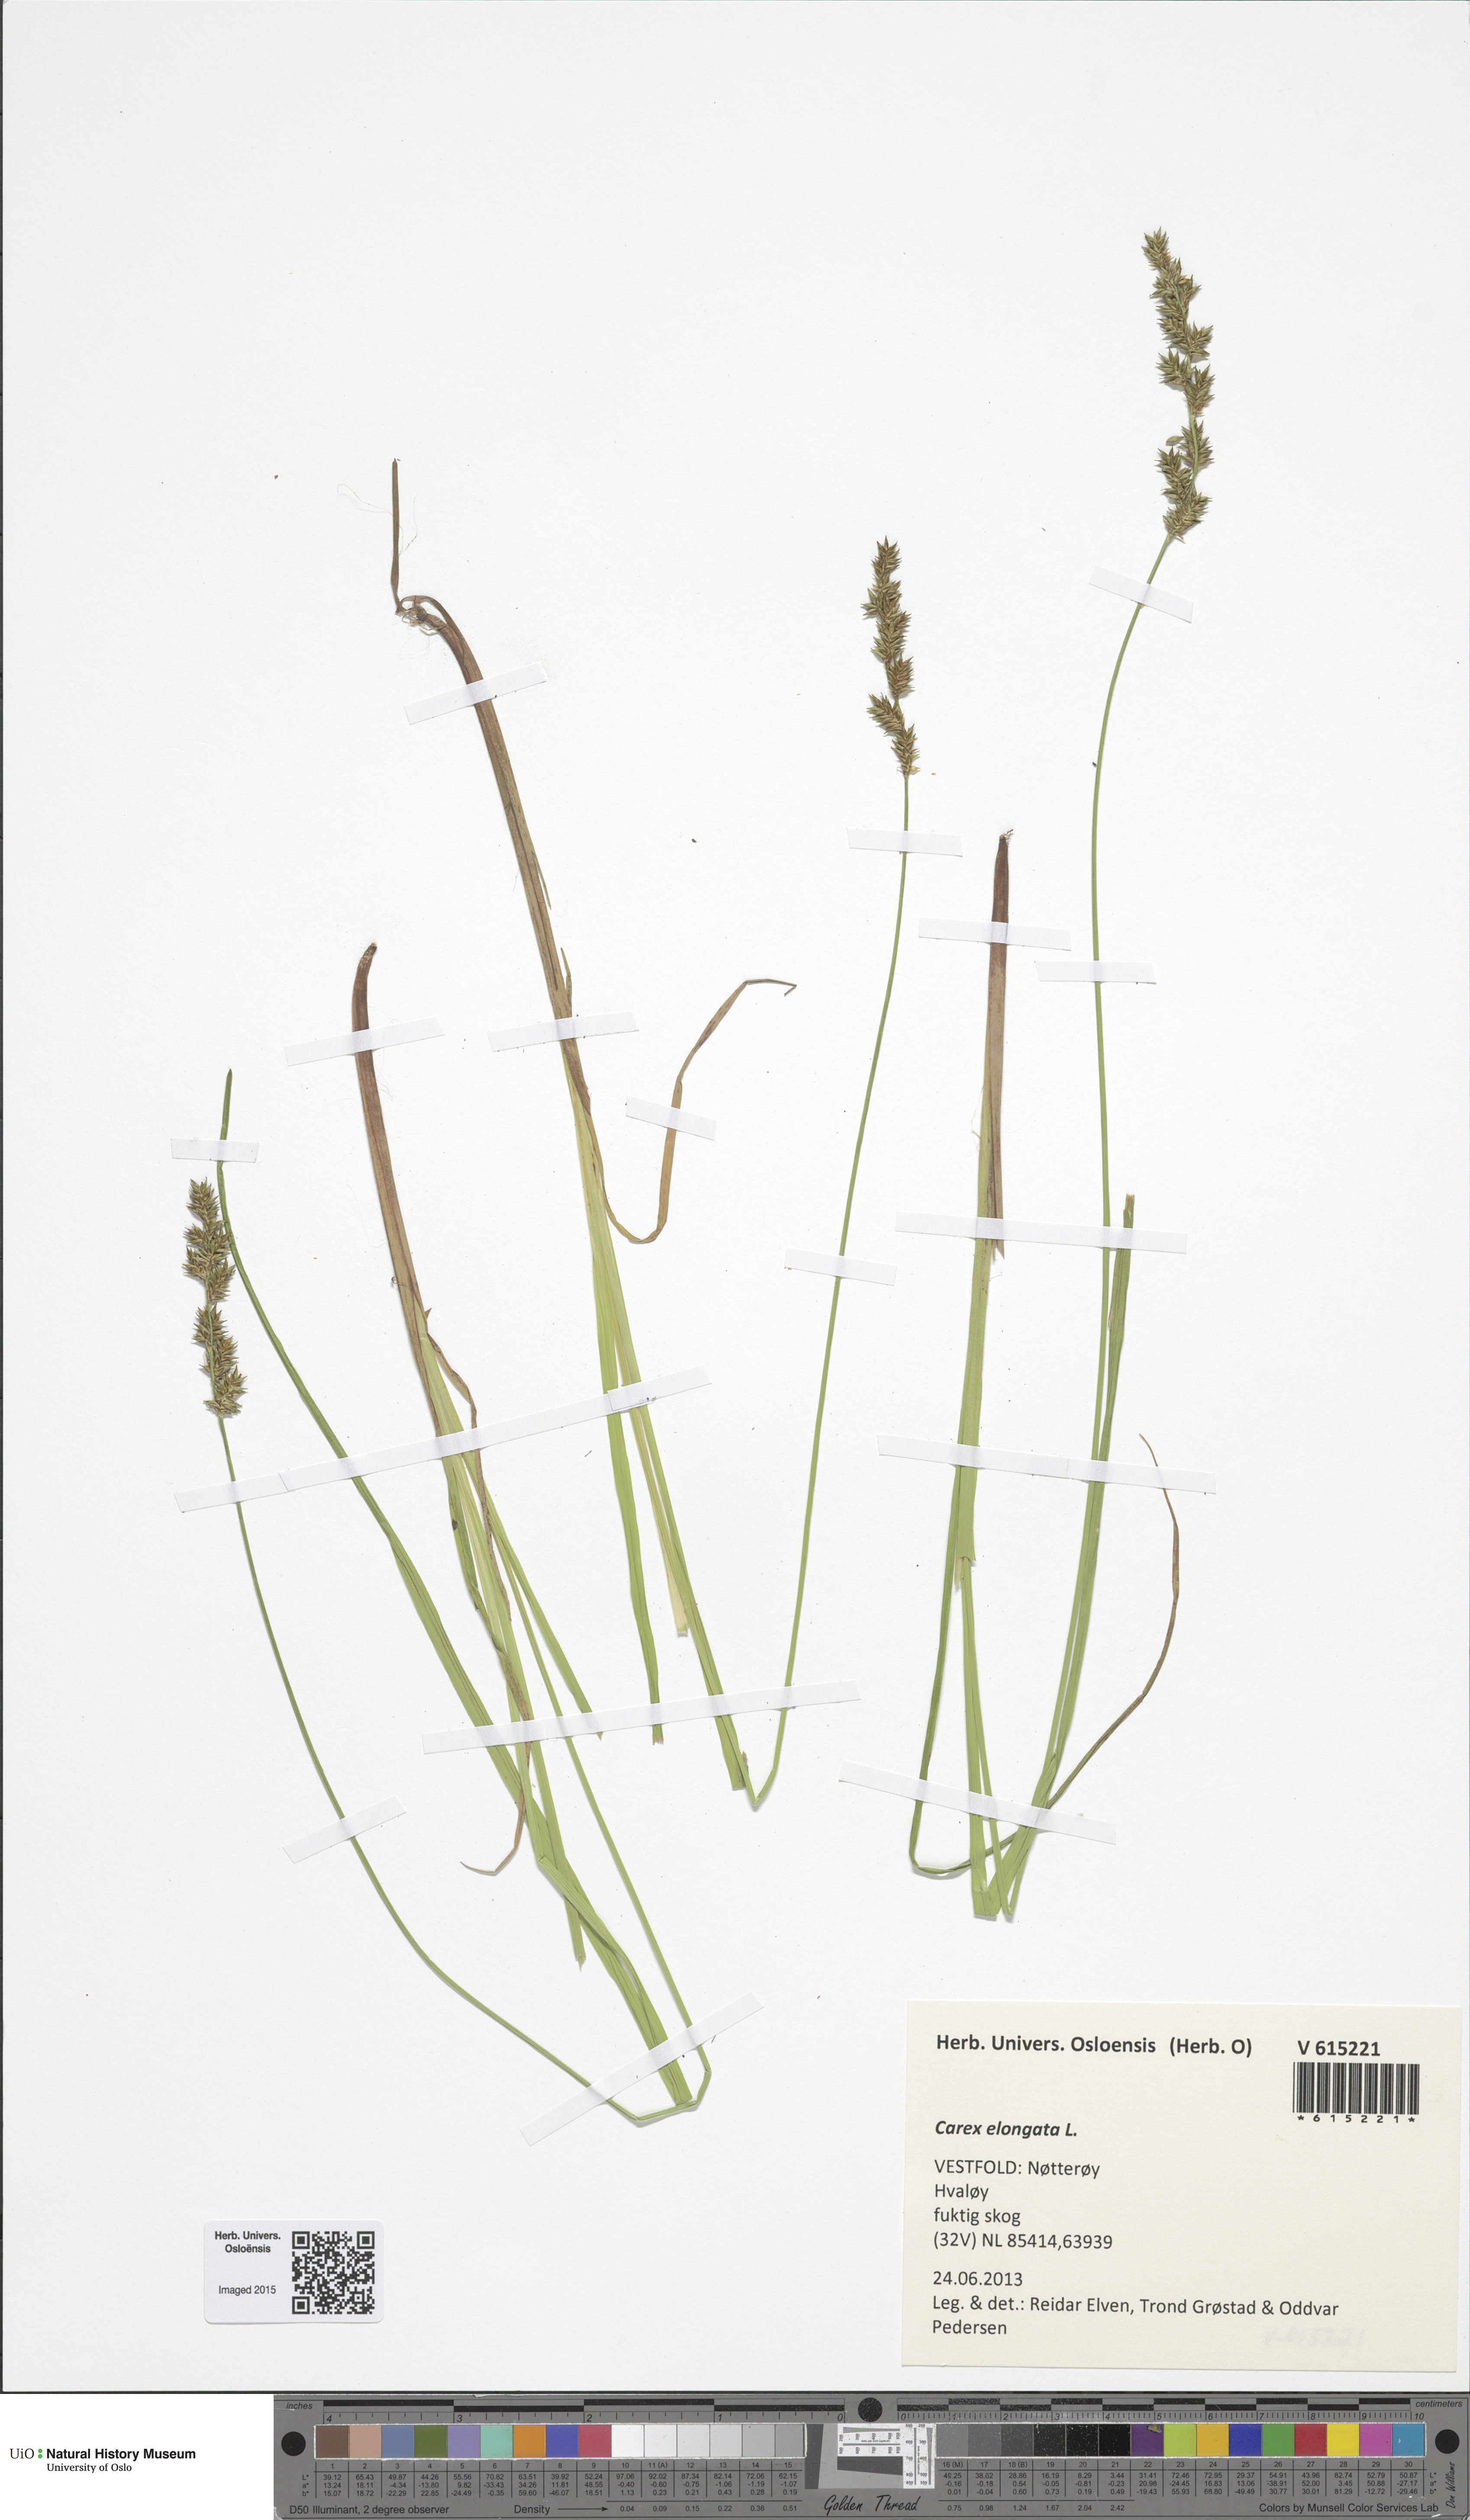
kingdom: Plantae
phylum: Tracheophyta
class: Liliopsida
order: Poales
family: Cyperaceae
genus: Carex
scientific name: Carex elongata
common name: Elongated sedge
